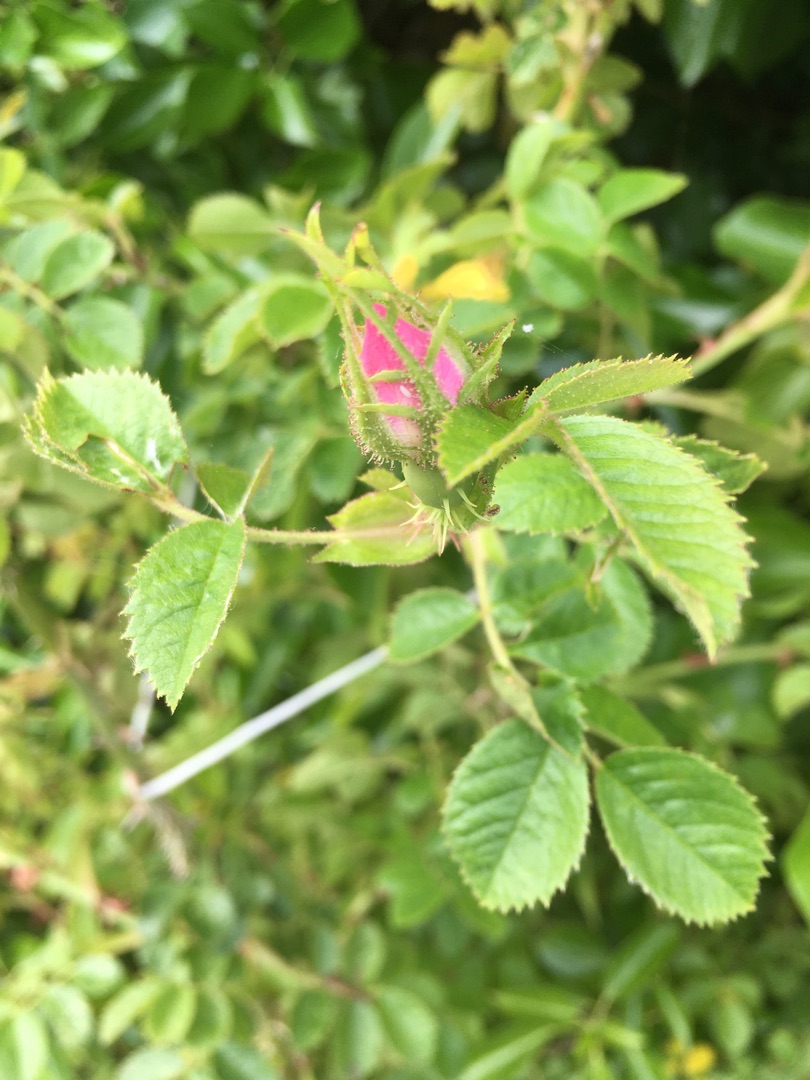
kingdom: Plantae
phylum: Tracheophyta
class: Magnoliopsida
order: Rosales
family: Rosaceae
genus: Rosa
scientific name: Rosa rubiginosa
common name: Æble-rose
